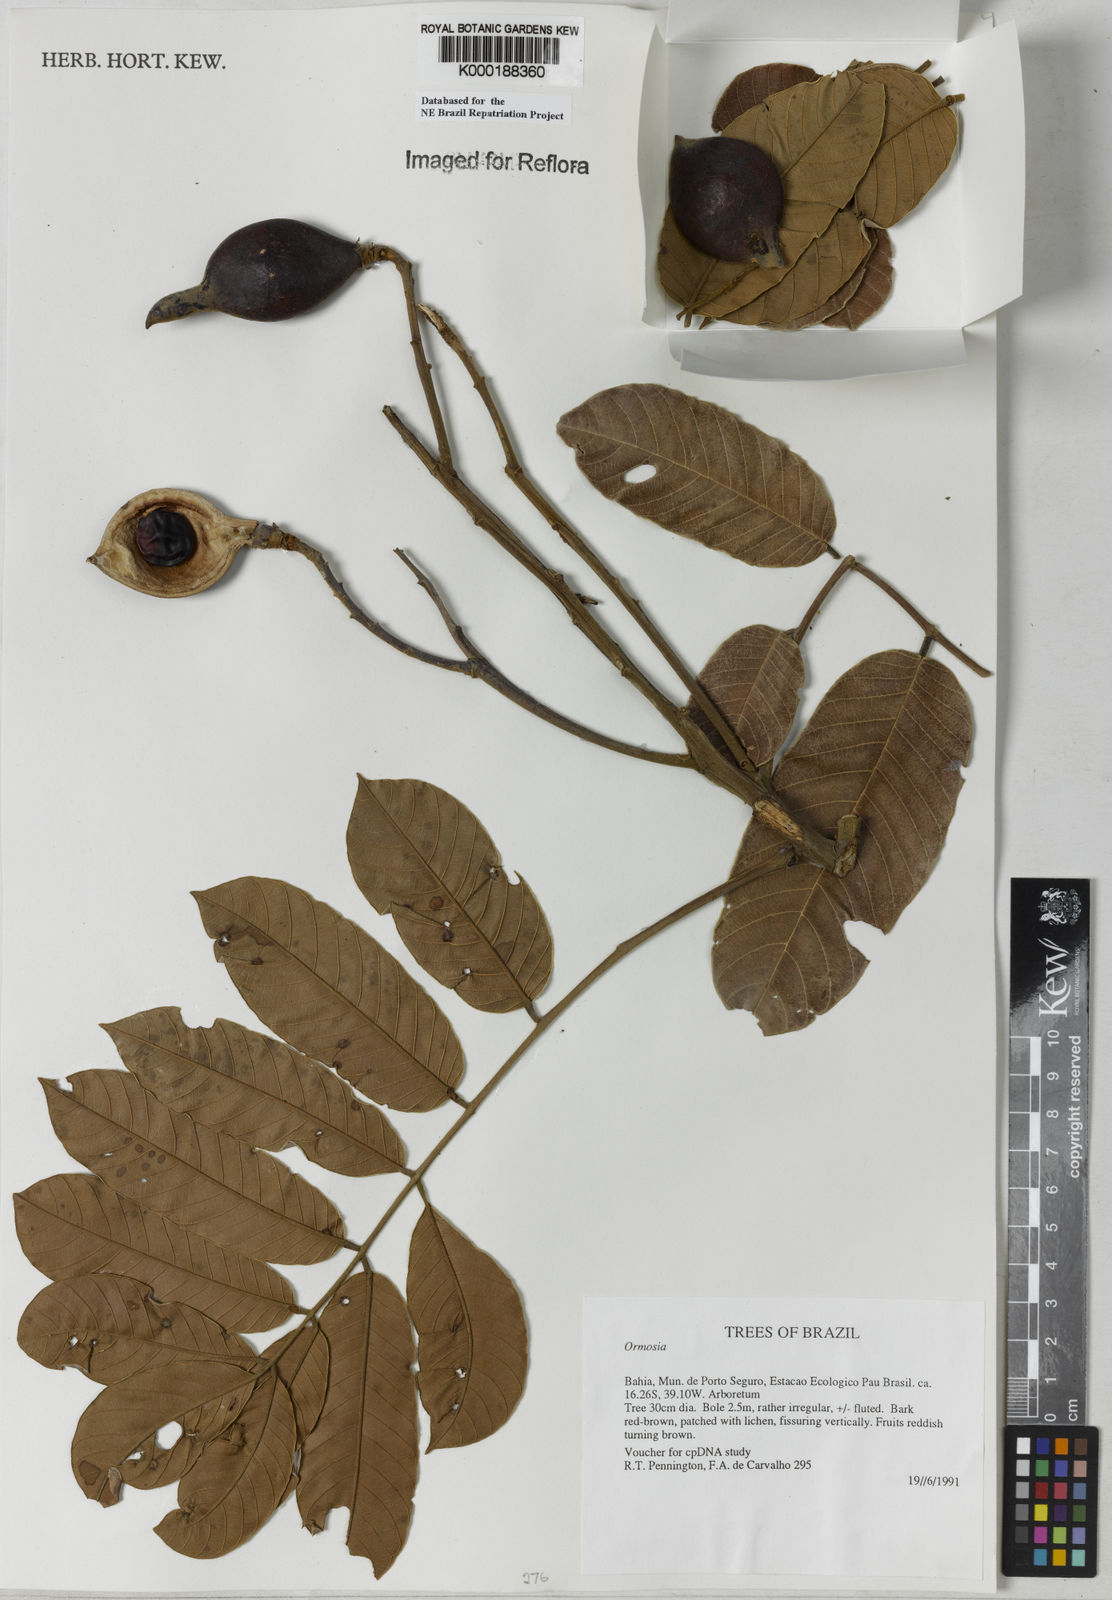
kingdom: Plantae
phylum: Tracheophyta
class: Magnoliopsida
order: Fabales
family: Fabaceae
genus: Ormosia
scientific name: Ormosia
